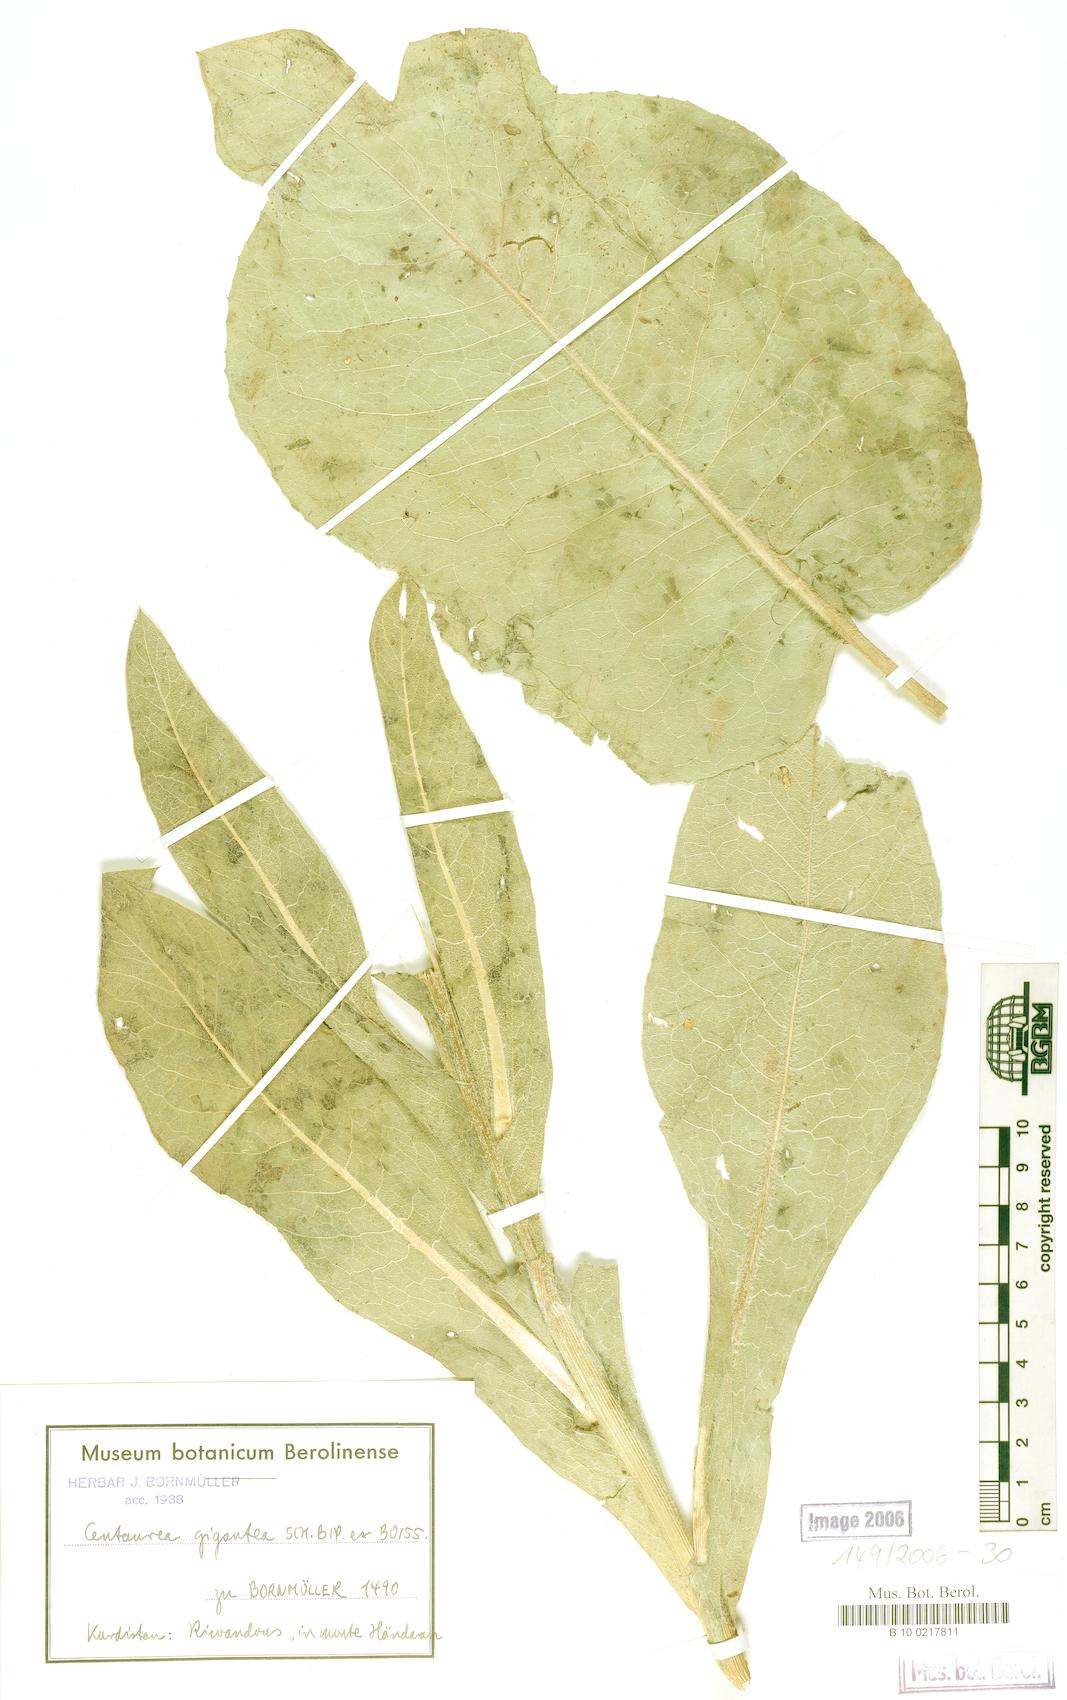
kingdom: Plantae
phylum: Tracheophyta
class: Magnoliopsida
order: Asterales
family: Asteraceae
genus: Centaurea
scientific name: Centaurea gigantea
